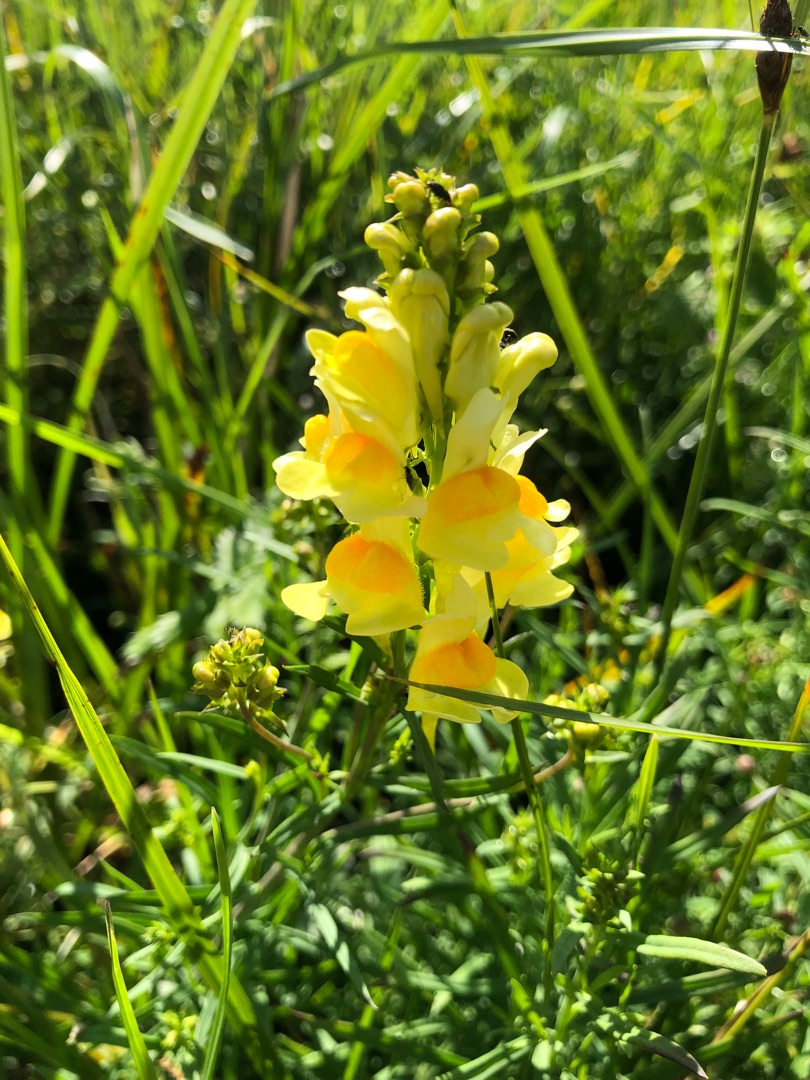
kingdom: Plantae
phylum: Tracheophyta
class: Magnoliopsida
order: Lamiales
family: Plantaginaceae
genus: Linaria
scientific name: Linaria vulgaris
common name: Almindelig torskemund
